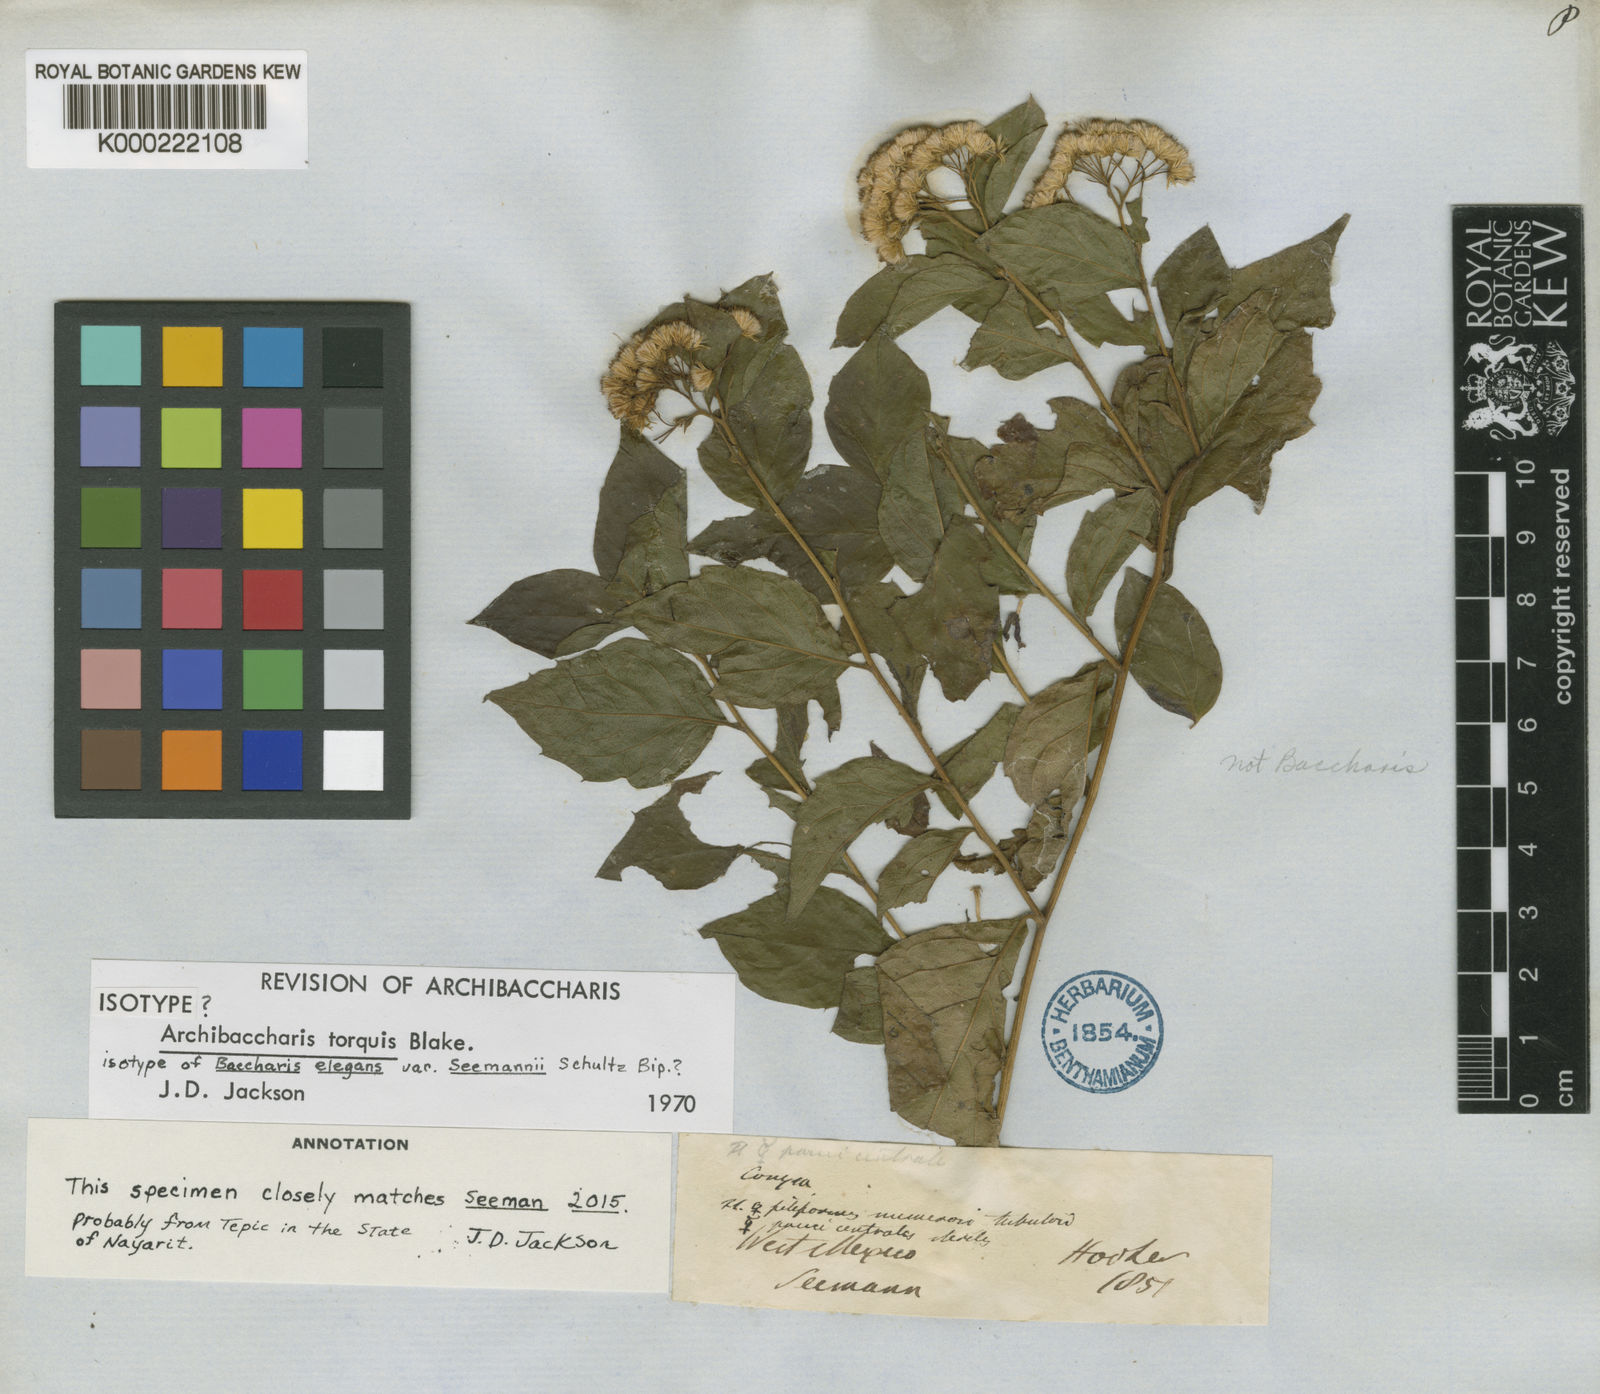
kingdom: Plantae
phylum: Tracheophyta
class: Magnoliopsida
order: Asterales
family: Asteraceae
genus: Baccharis
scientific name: Baccharis
